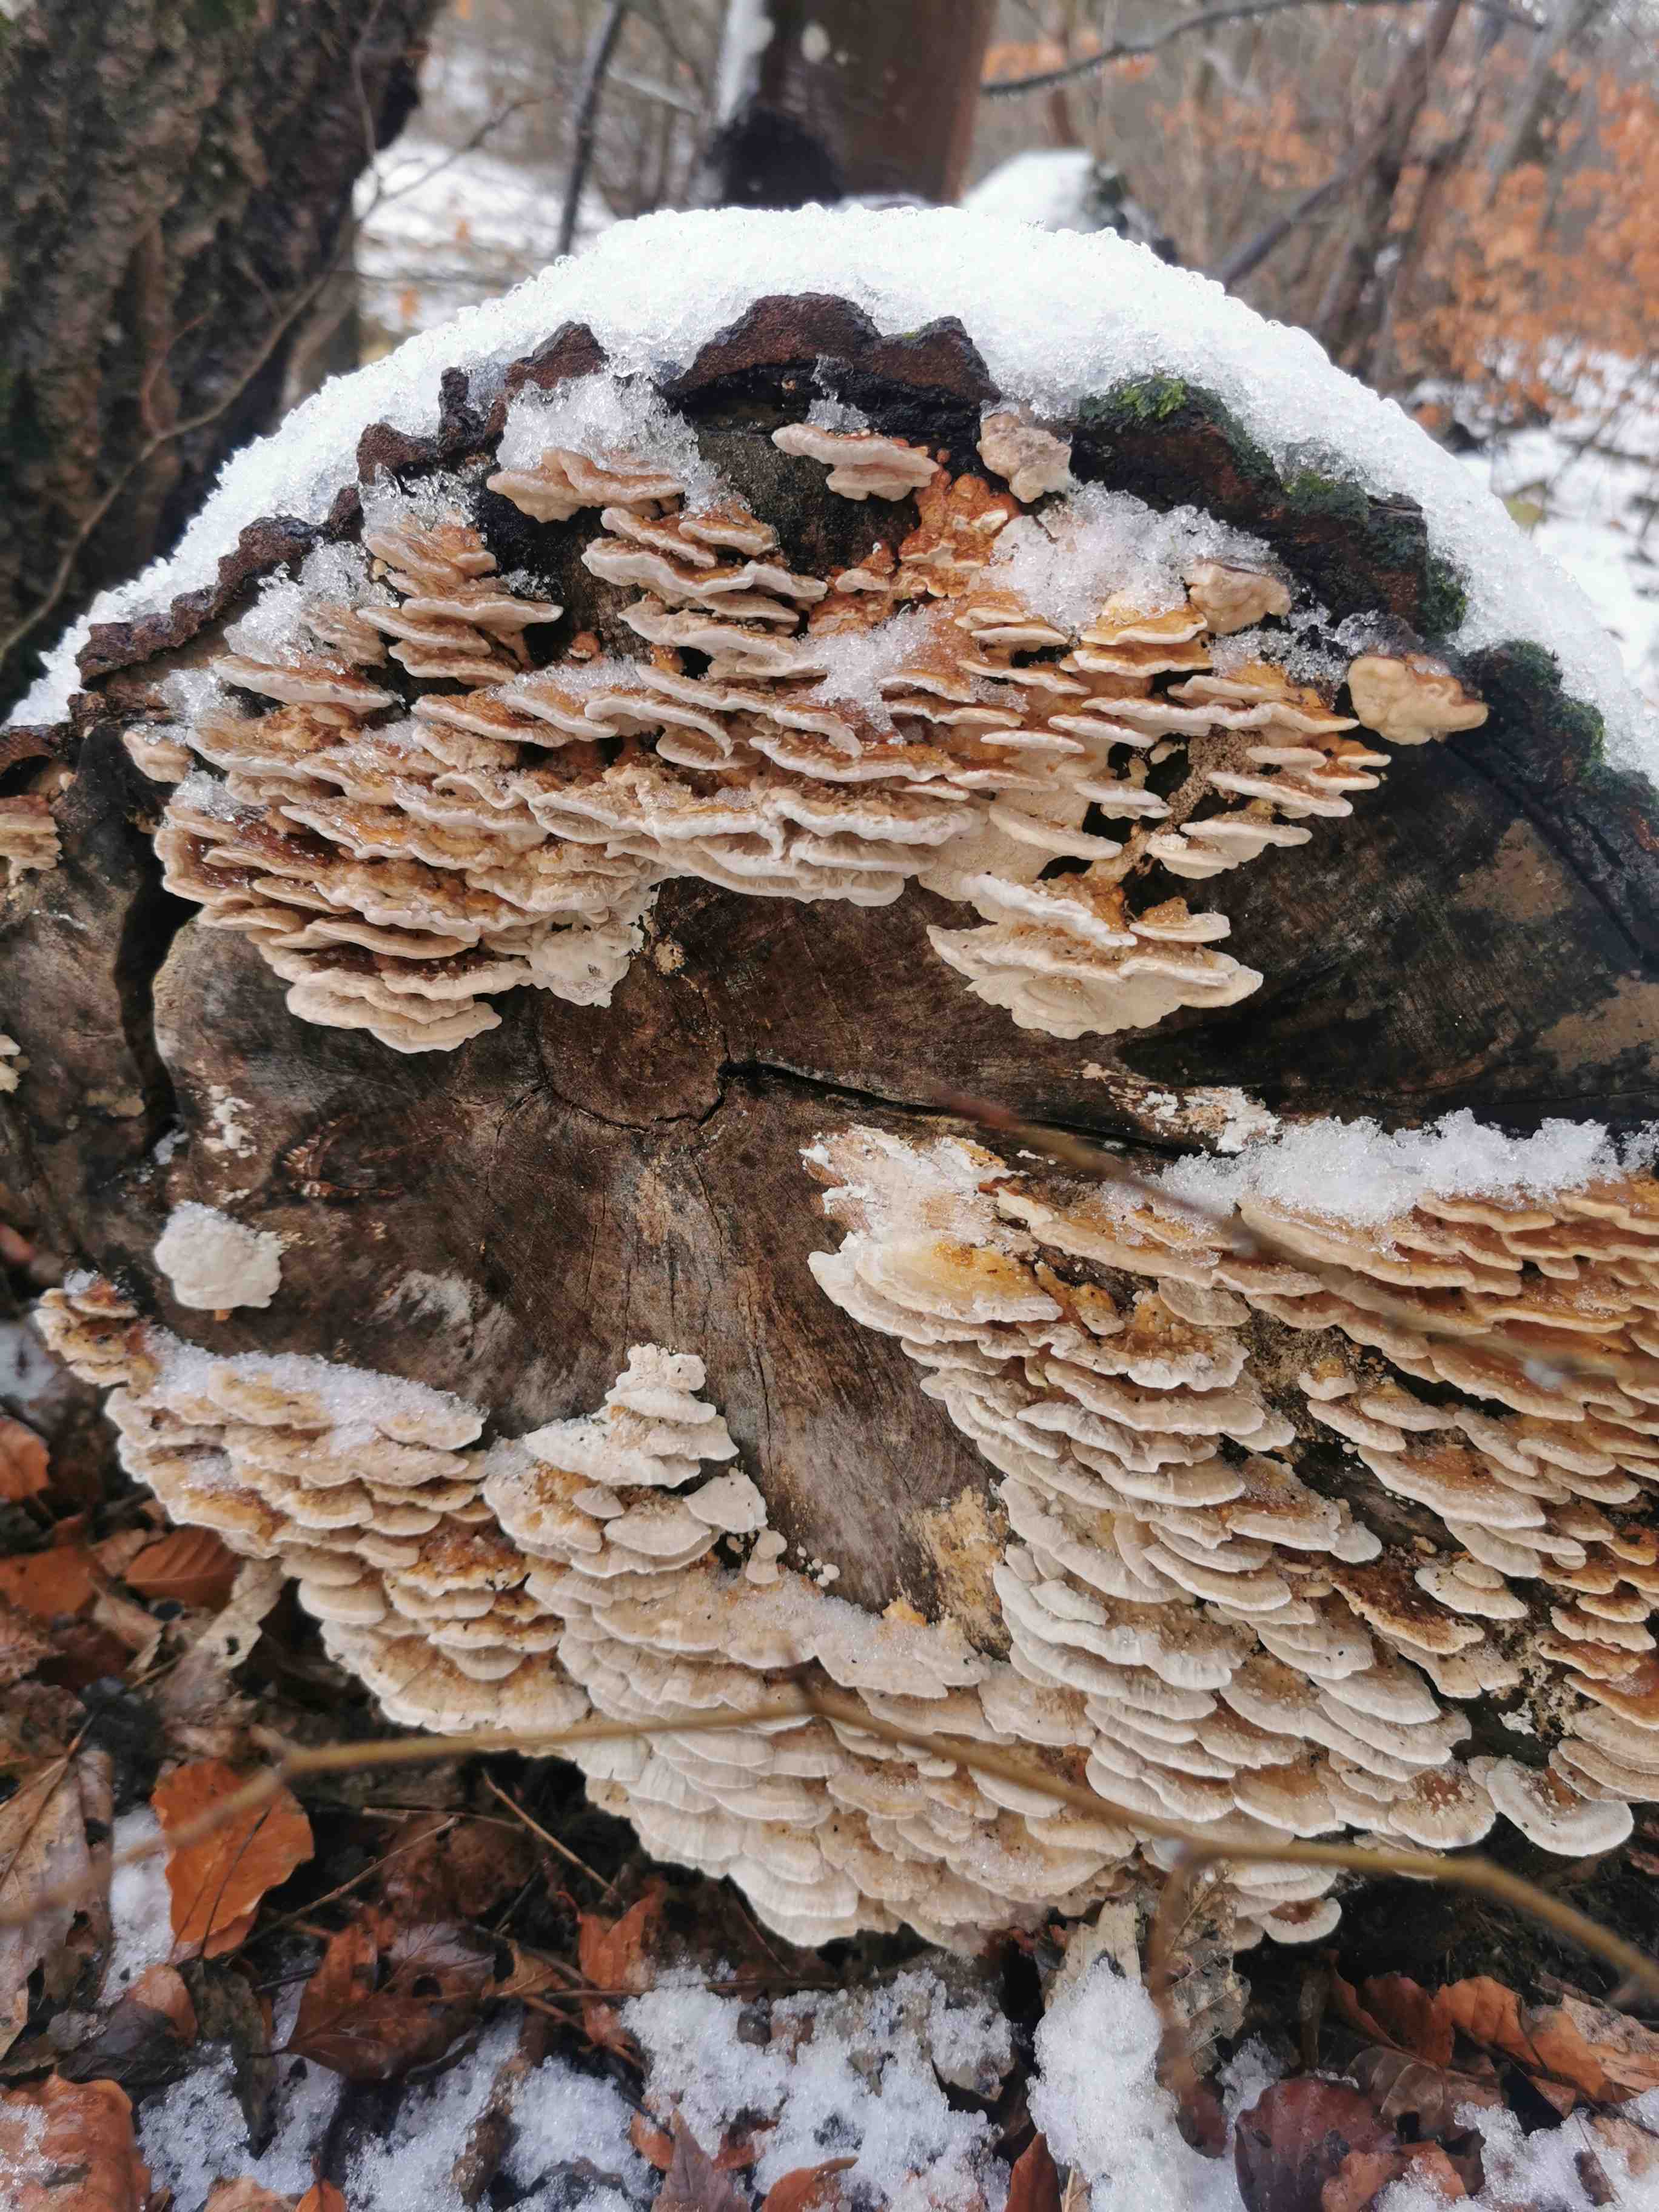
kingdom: Fungi
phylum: Basidiomycota
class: Agaricomycetes
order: Polyporales
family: Polyporaceae
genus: Trametes
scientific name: Trametes ochracea
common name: bæltet læderporesvamp
